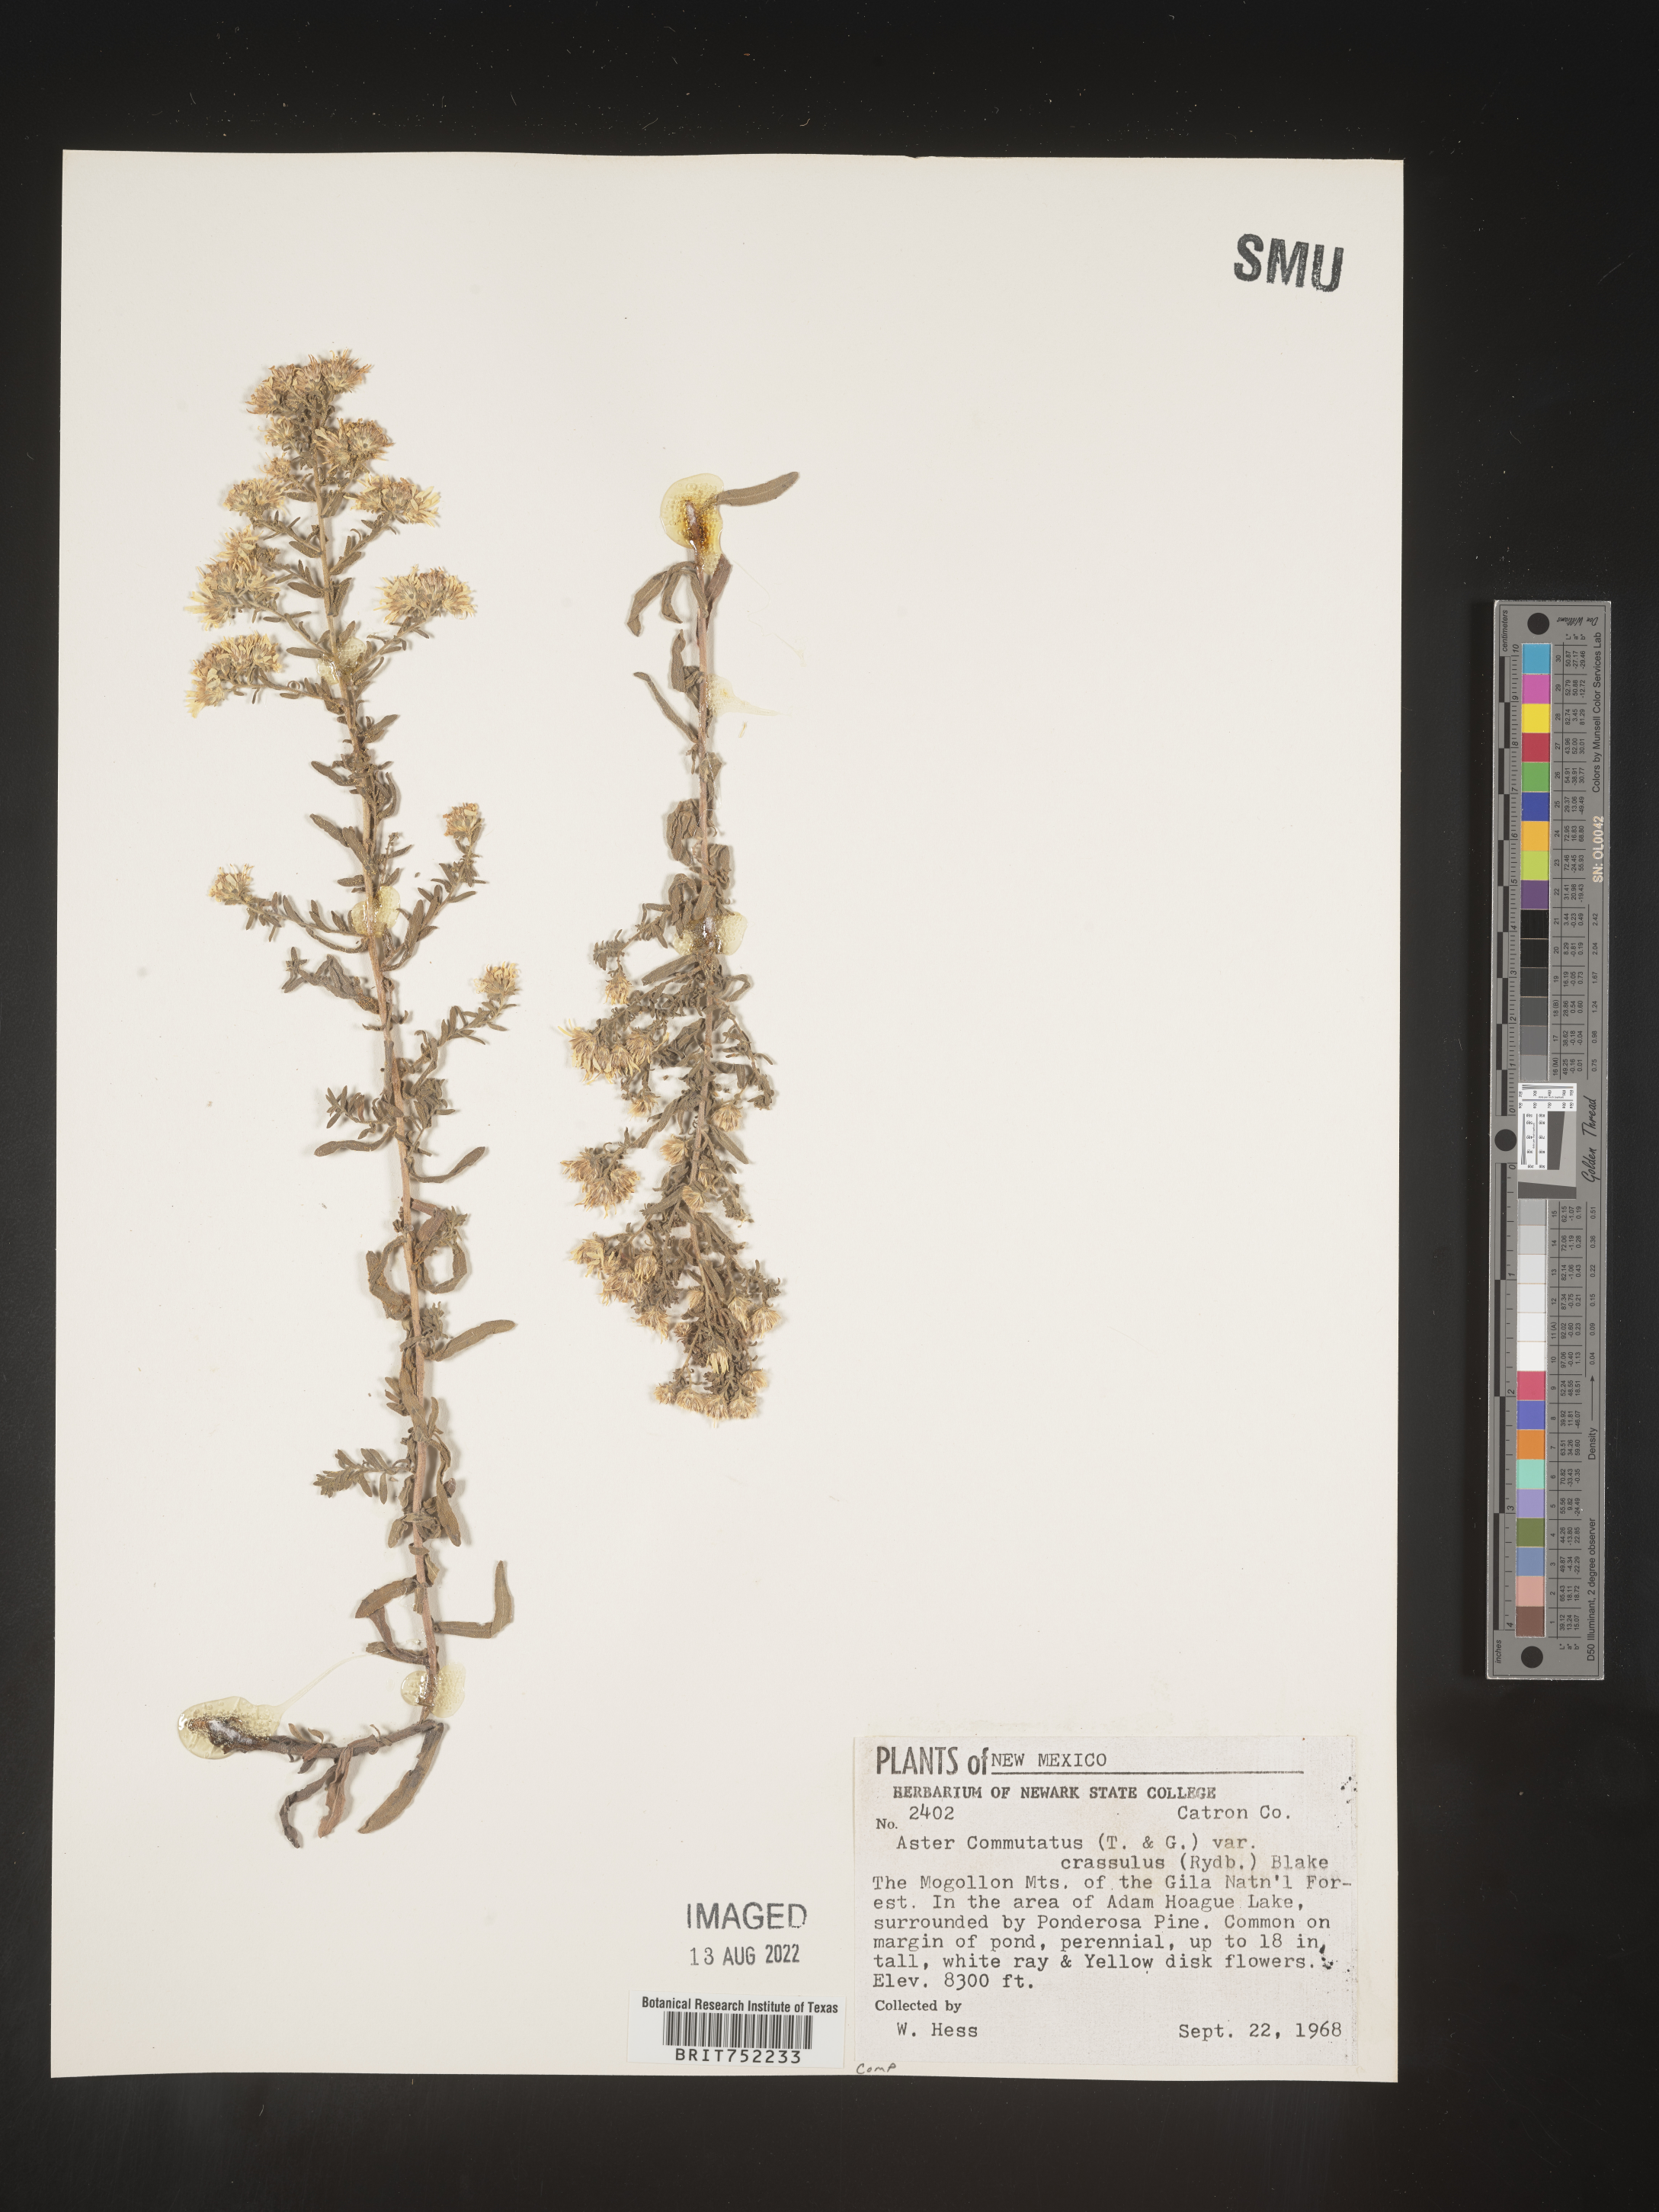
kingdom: Plantae
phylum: Tracheophyta
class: Magnoliopsida
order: Asterales
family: Asteraceae
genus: Symphyotrichum
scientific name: Symphyotrichum ericoides
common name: Heath aster
